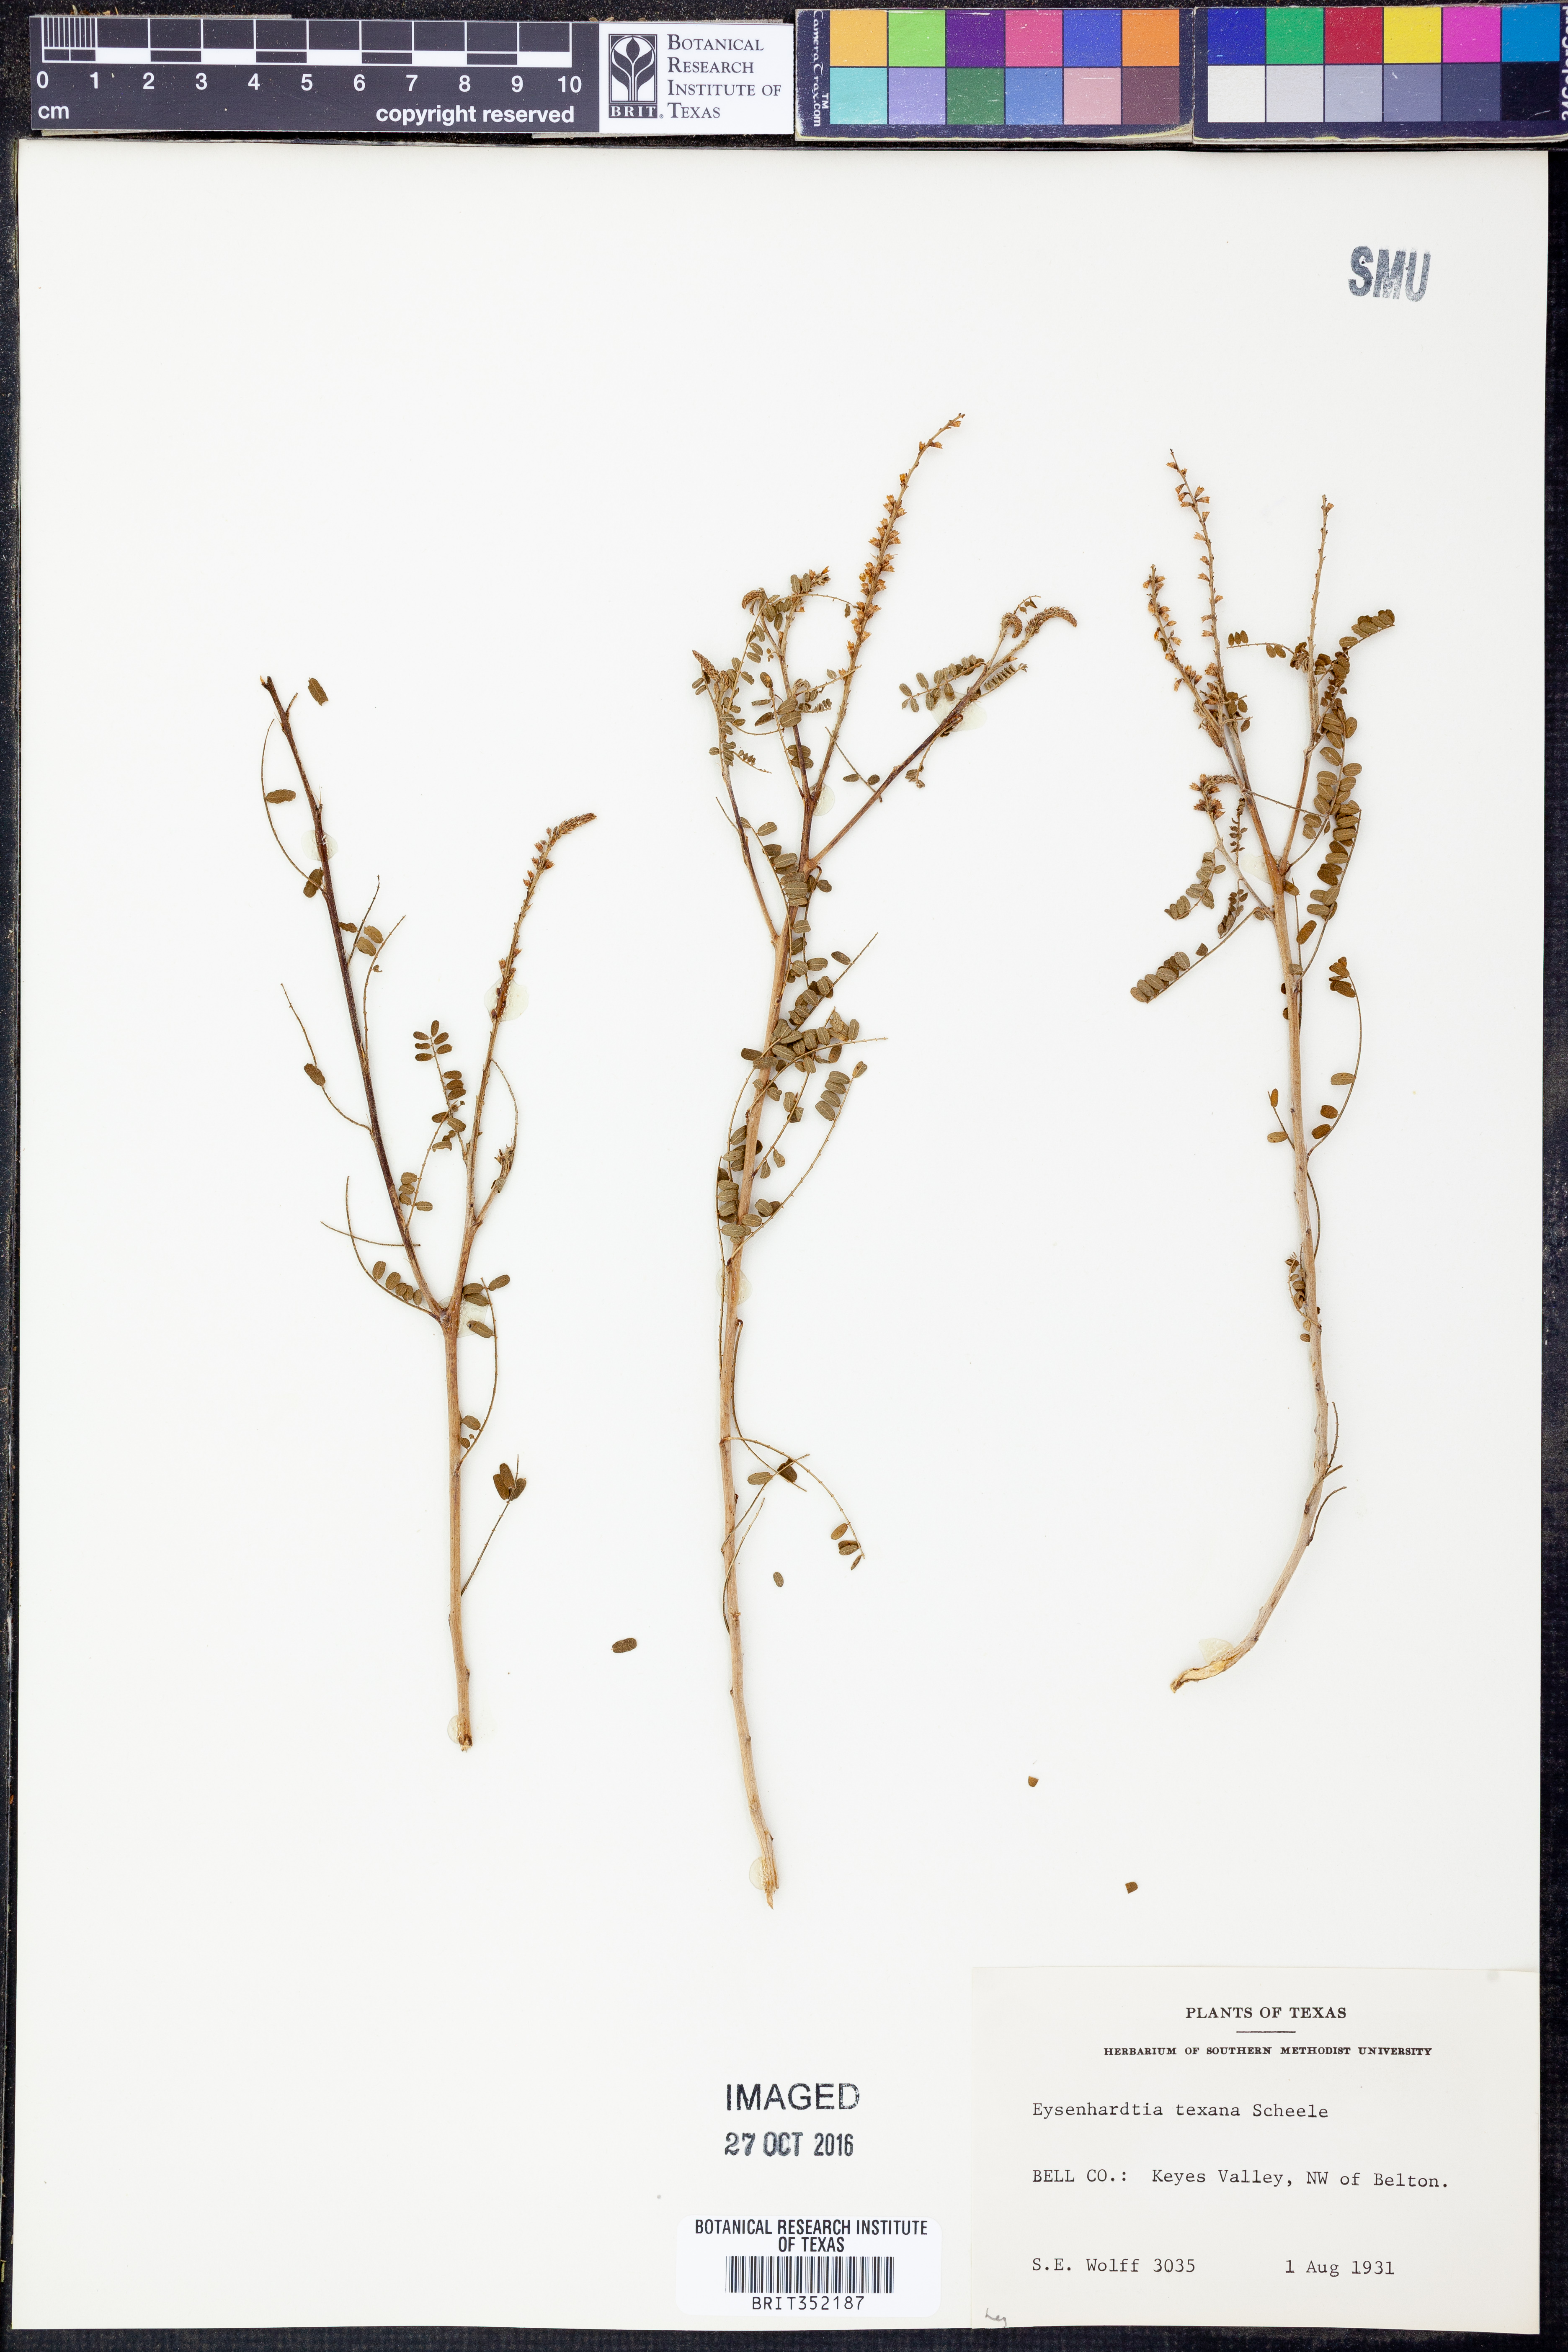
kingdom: Plantae
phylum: Tracheophyta
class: Magnoliopsida
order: Fabales
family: Fabaceae
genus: Eysenhardtia
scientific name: Eysenhardtia texana
